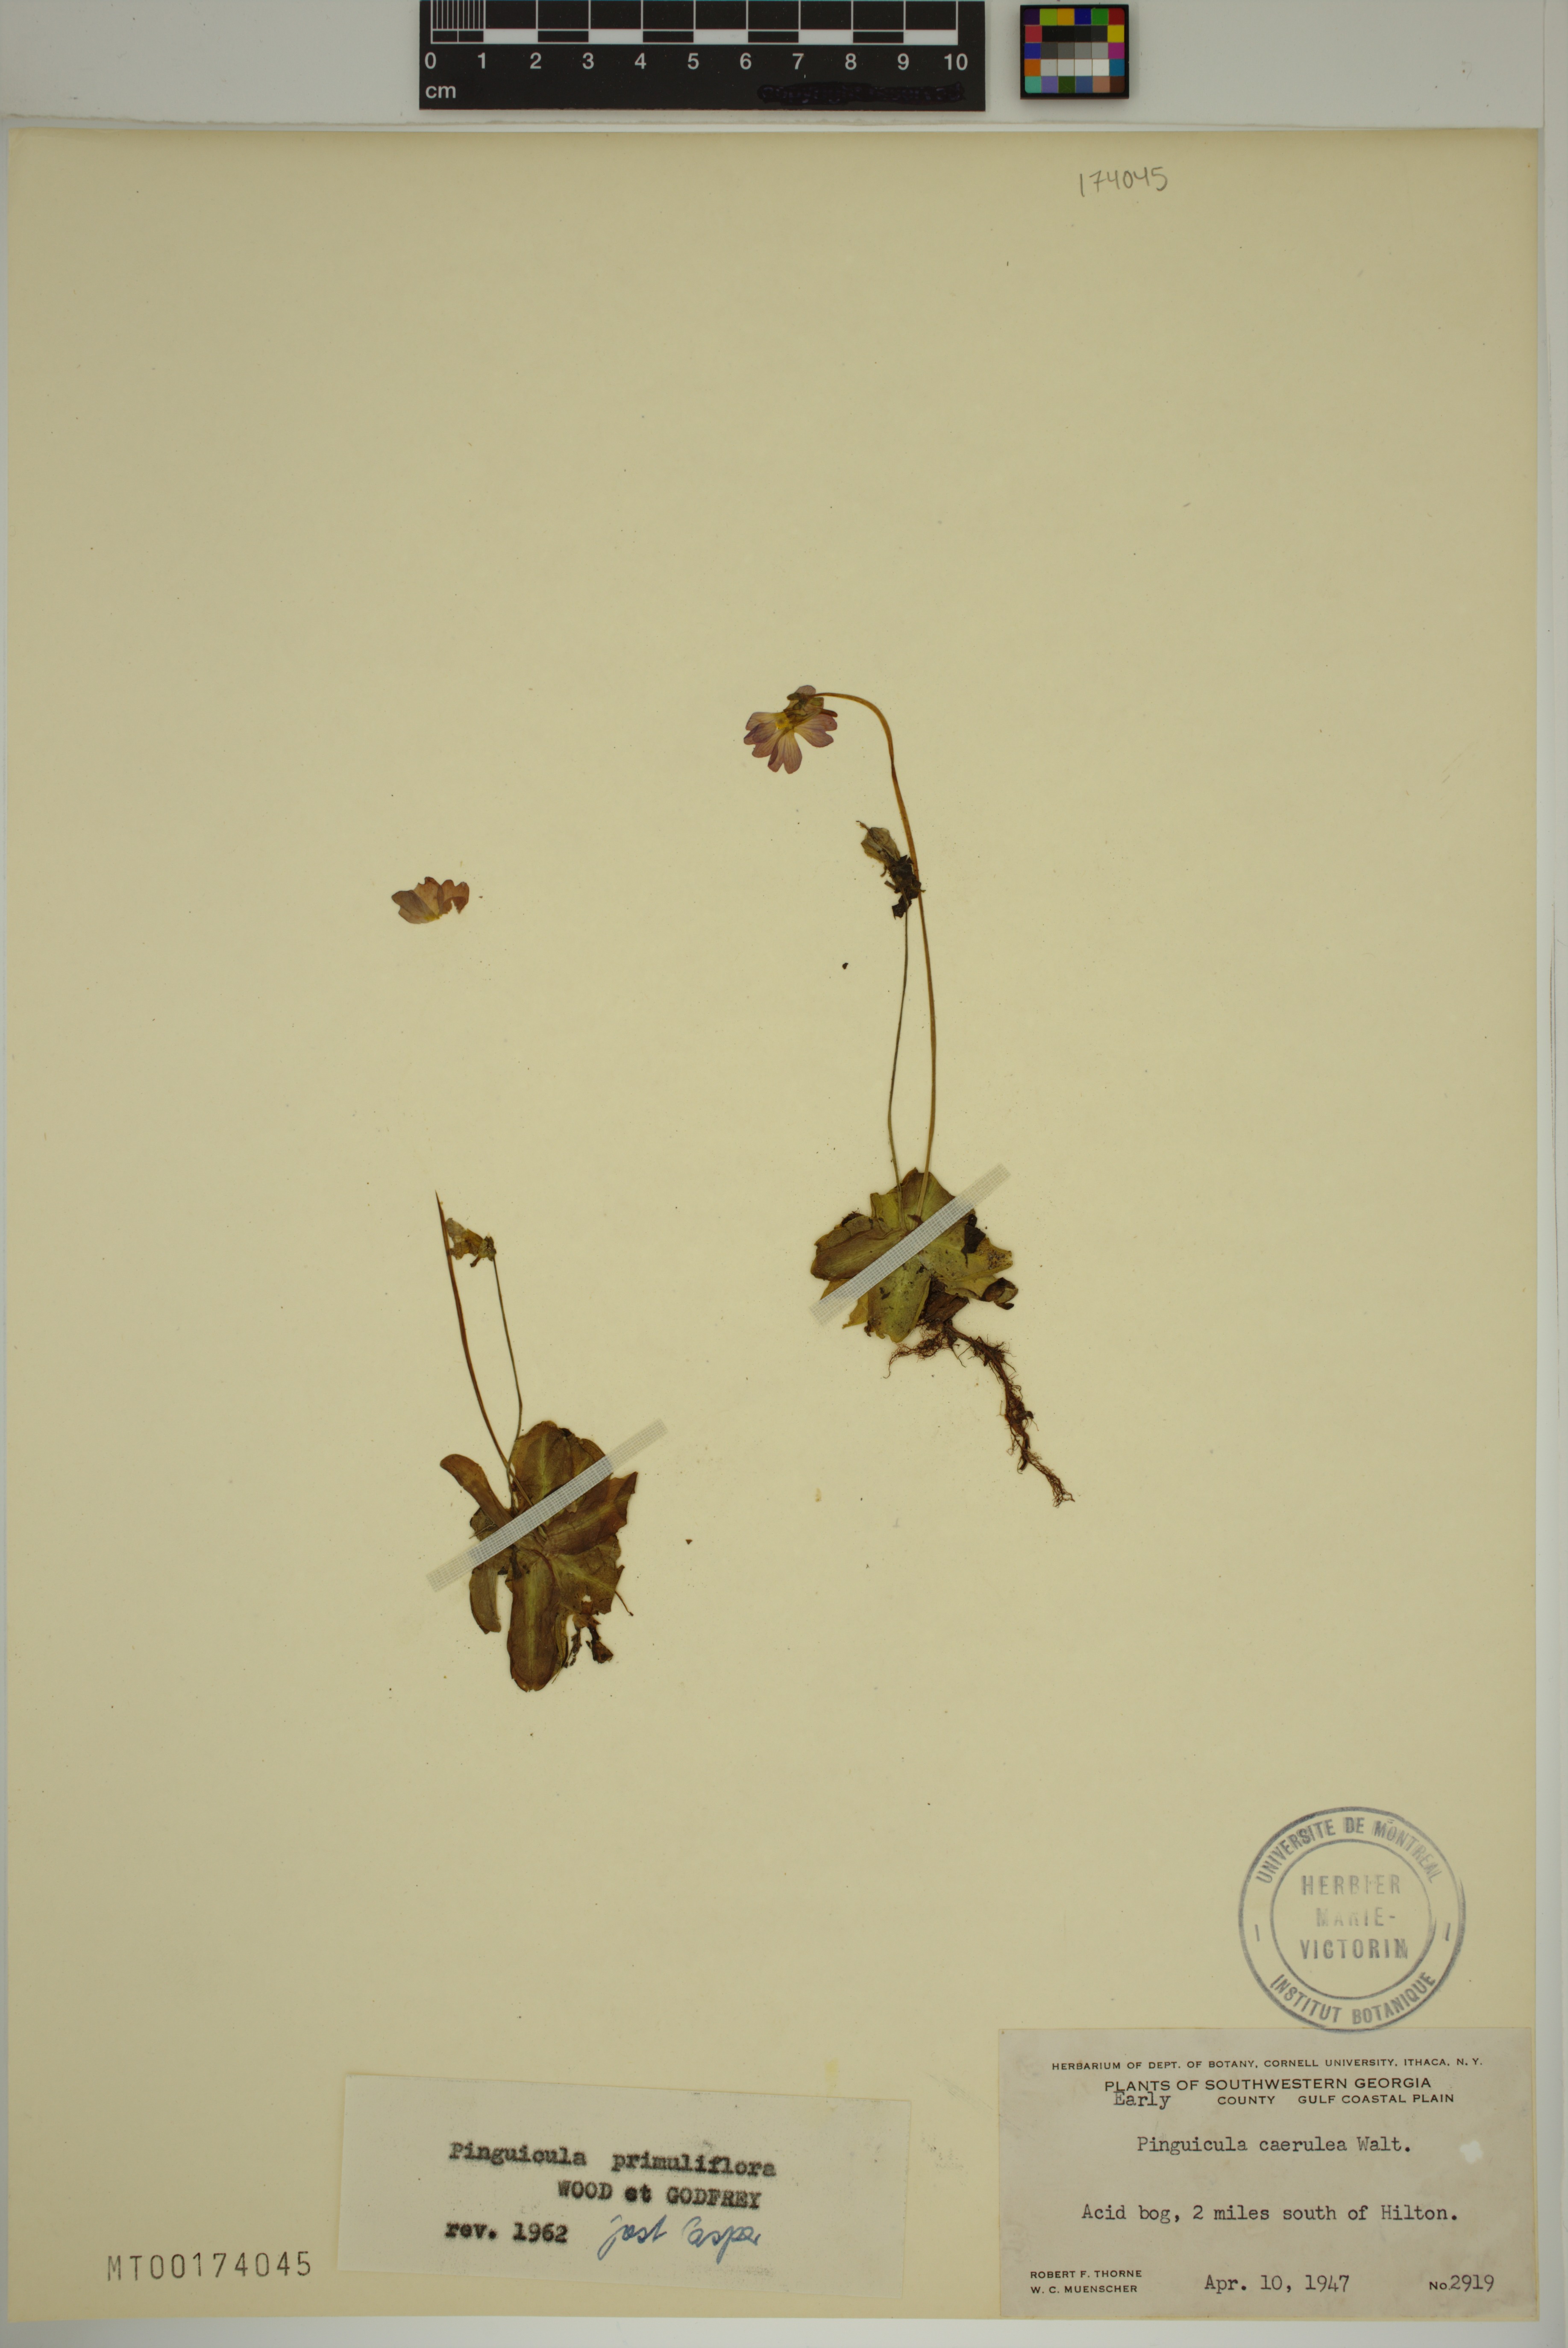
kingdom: Plantae
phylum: Tracheophyta
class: Magnoliopsida
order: Lamiales
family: Lentibulariaceae
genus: Pinguicula
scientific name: Pinguicula primuliflora
